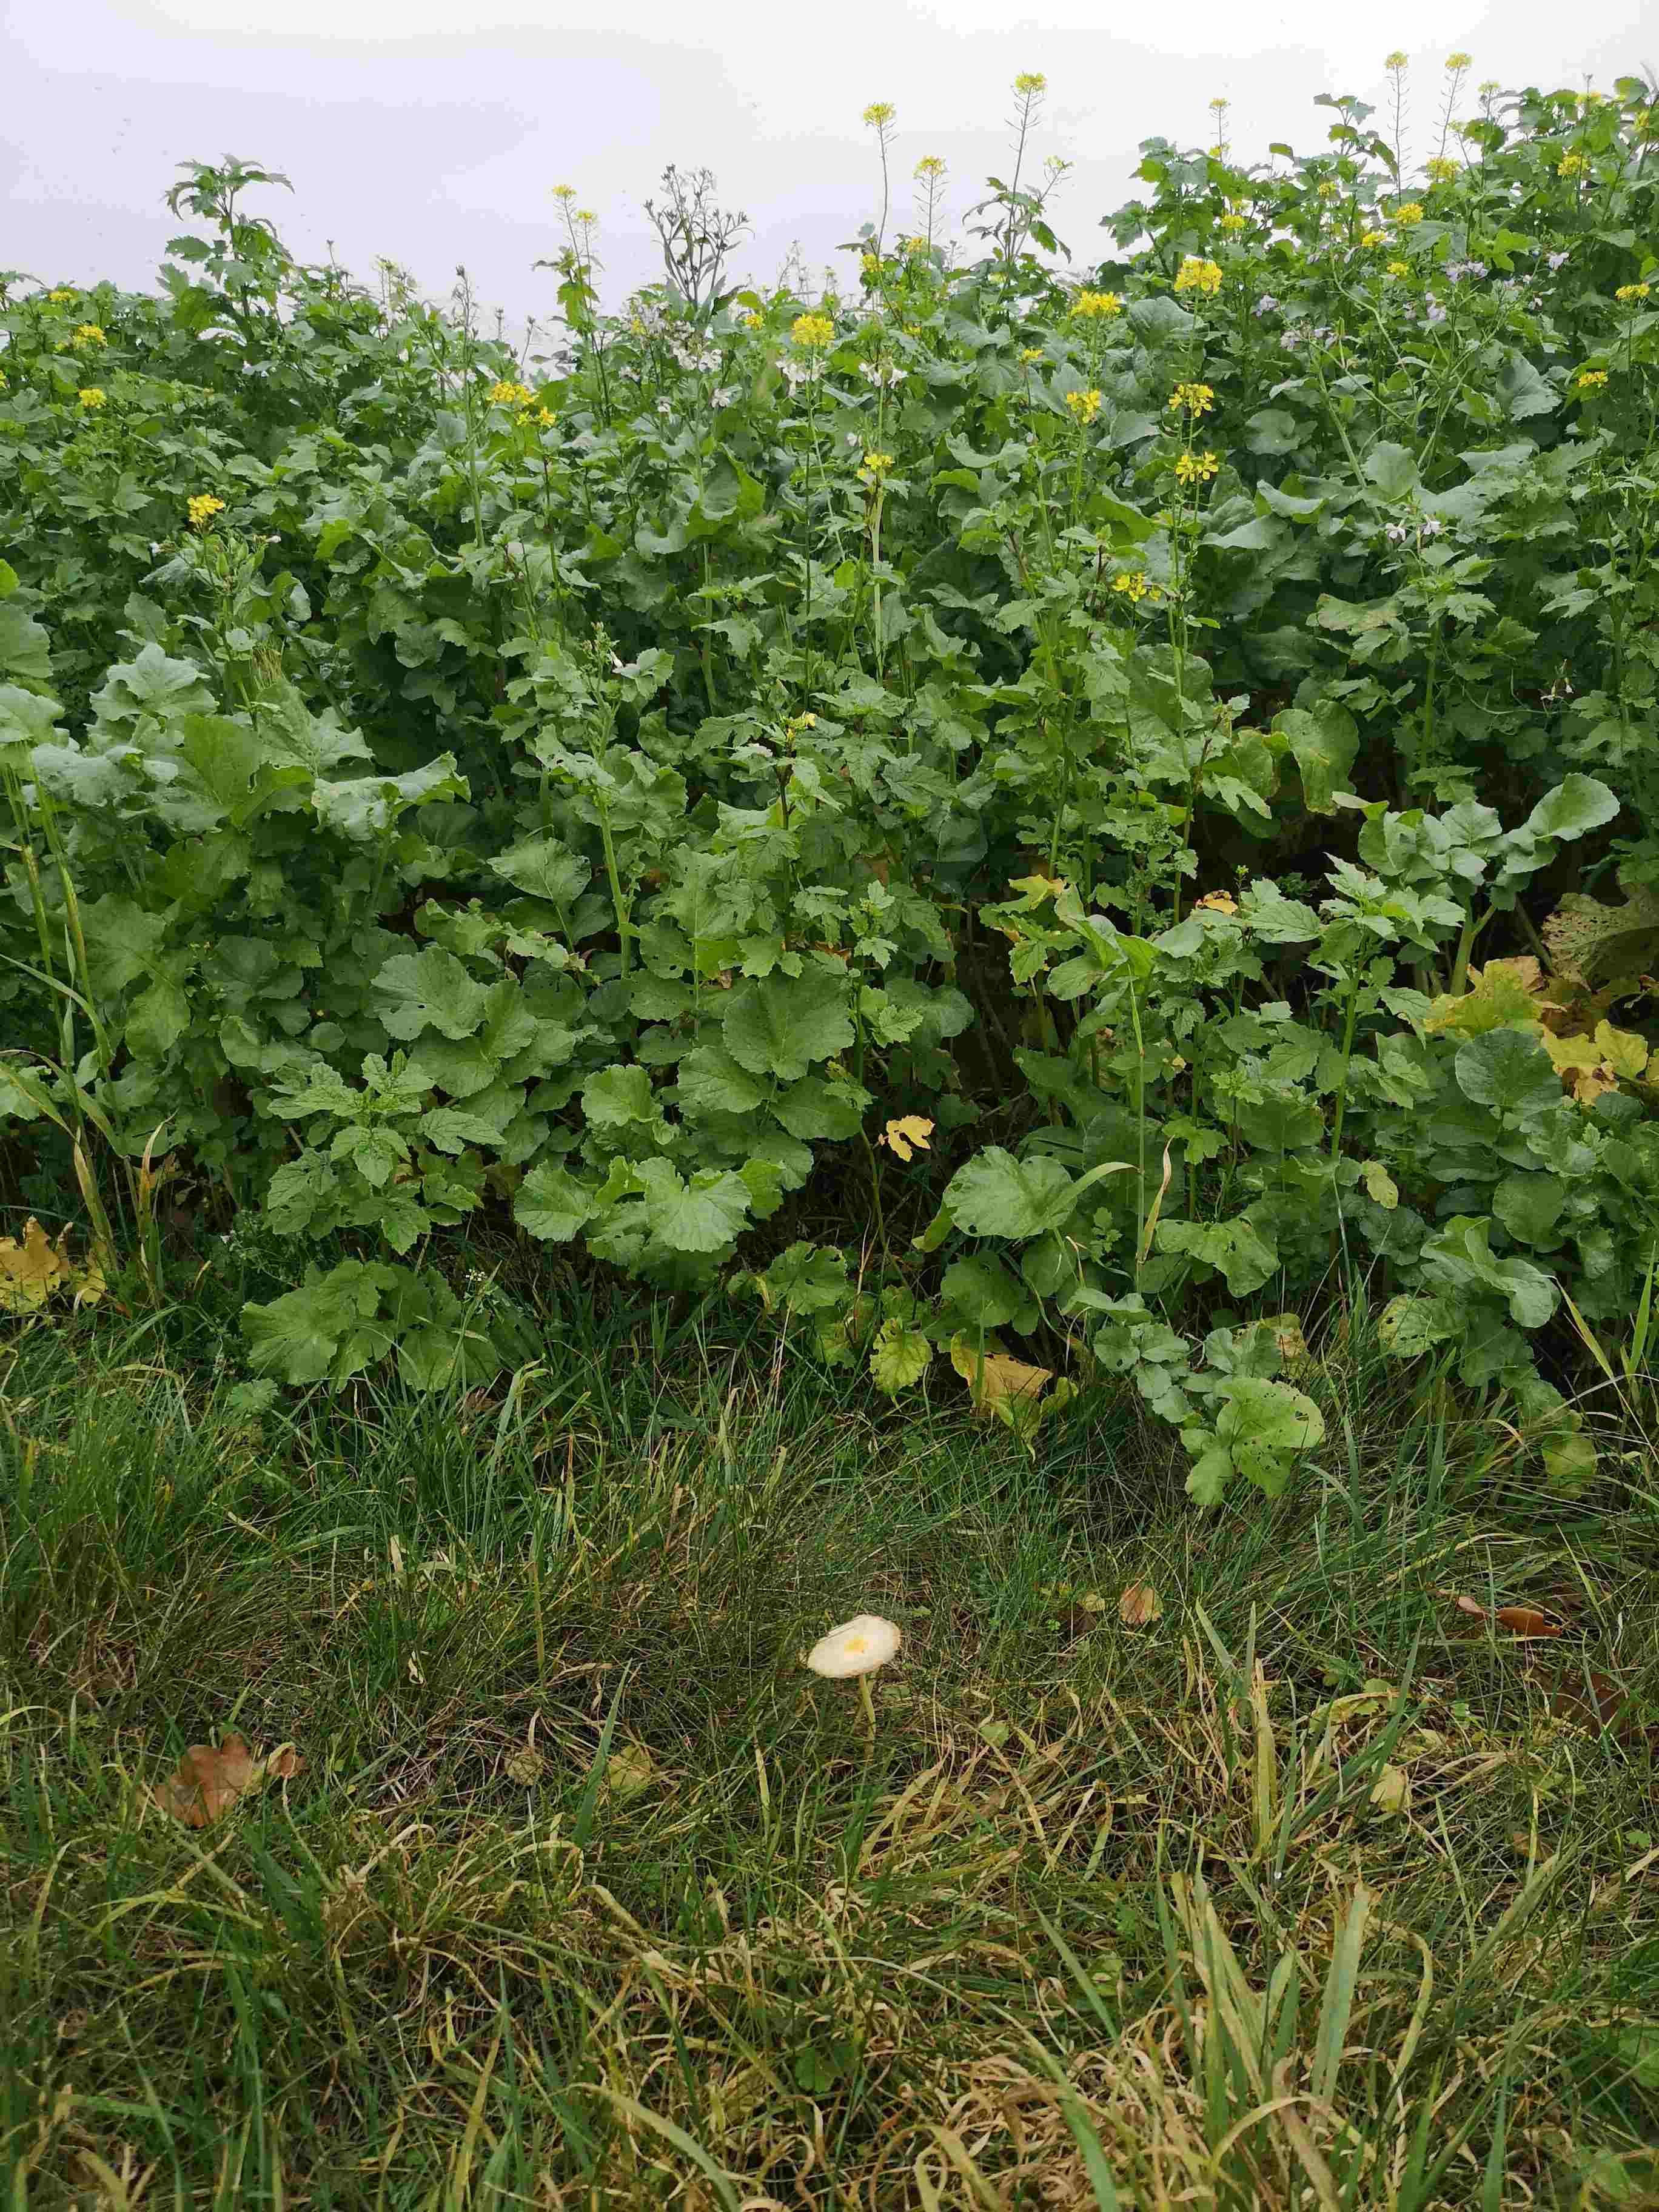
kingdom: Fungi
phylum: Basidiomycota
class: Agaricomycetes
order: Agaricales
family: Bolbitiaceae
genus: Bolbitius
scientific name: Bolbitius titubans
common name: almindelig gulhat
